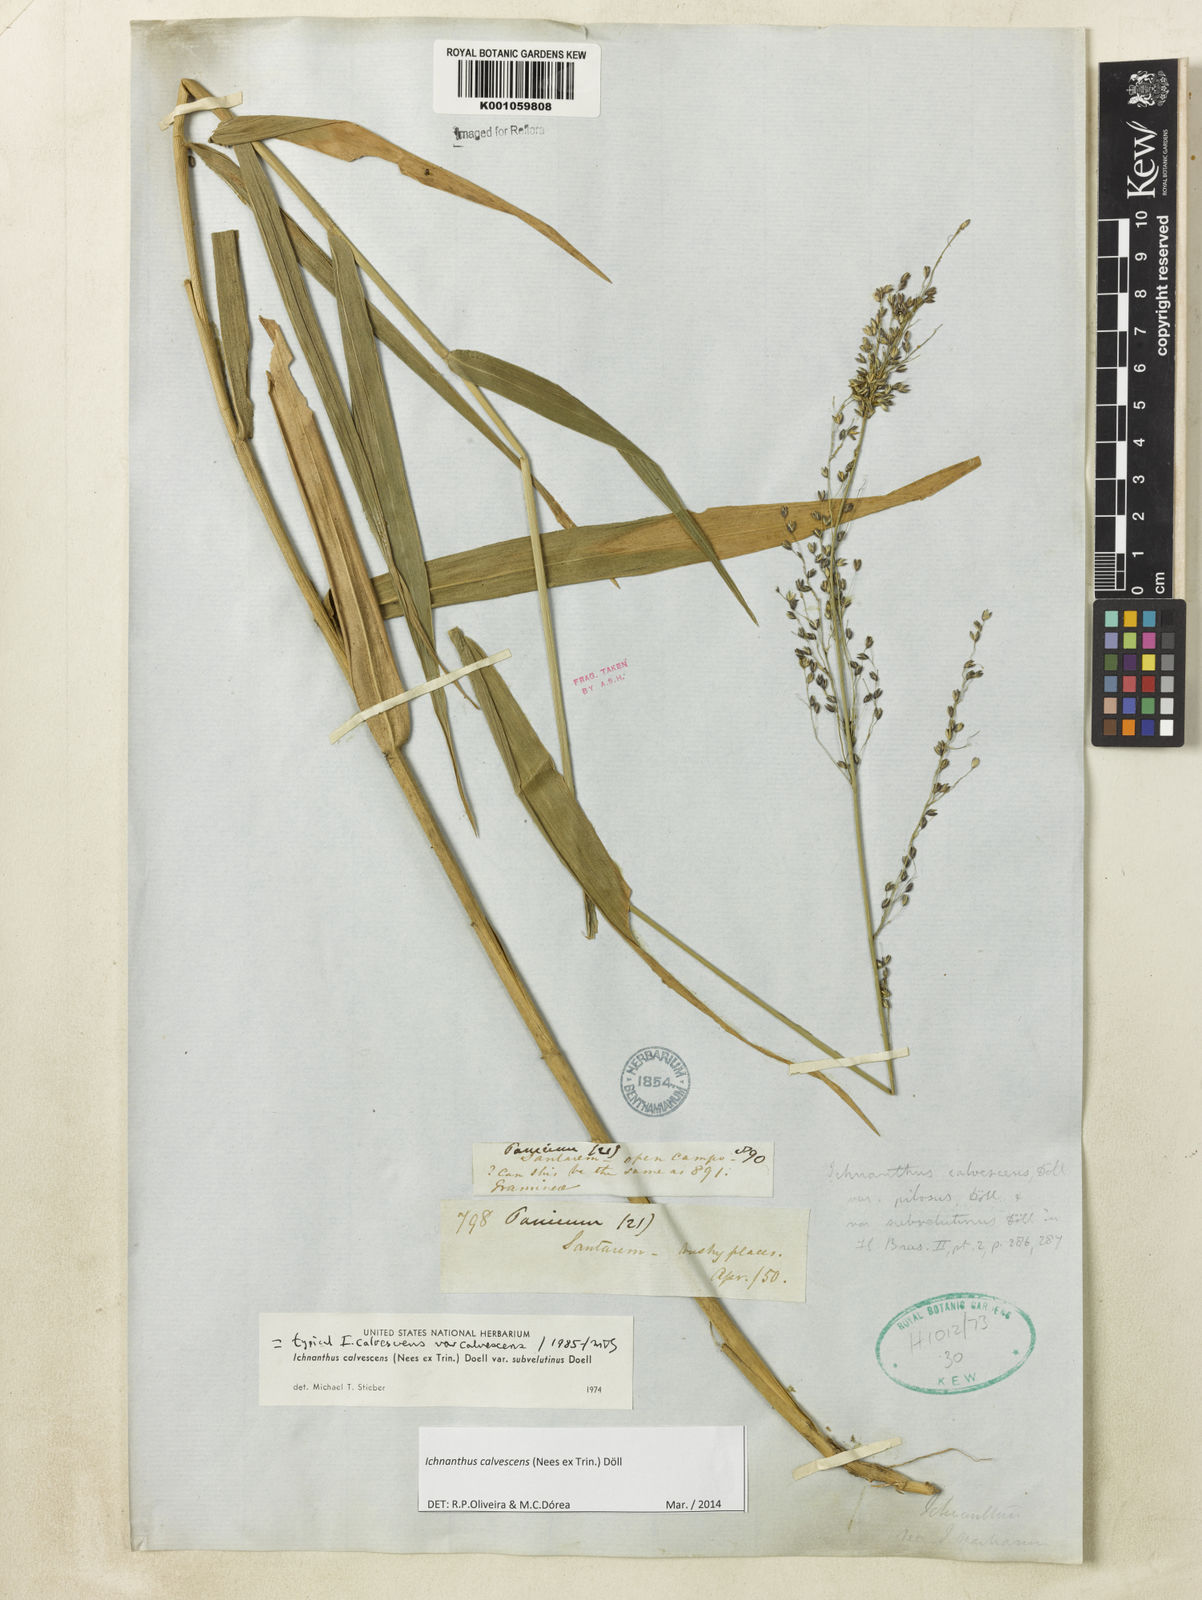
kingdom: Plantae
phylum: Tracheophyta
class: Liliopsida
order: Poales
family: Poaceae
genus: Ichnanthus
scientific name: Ichnanthus
